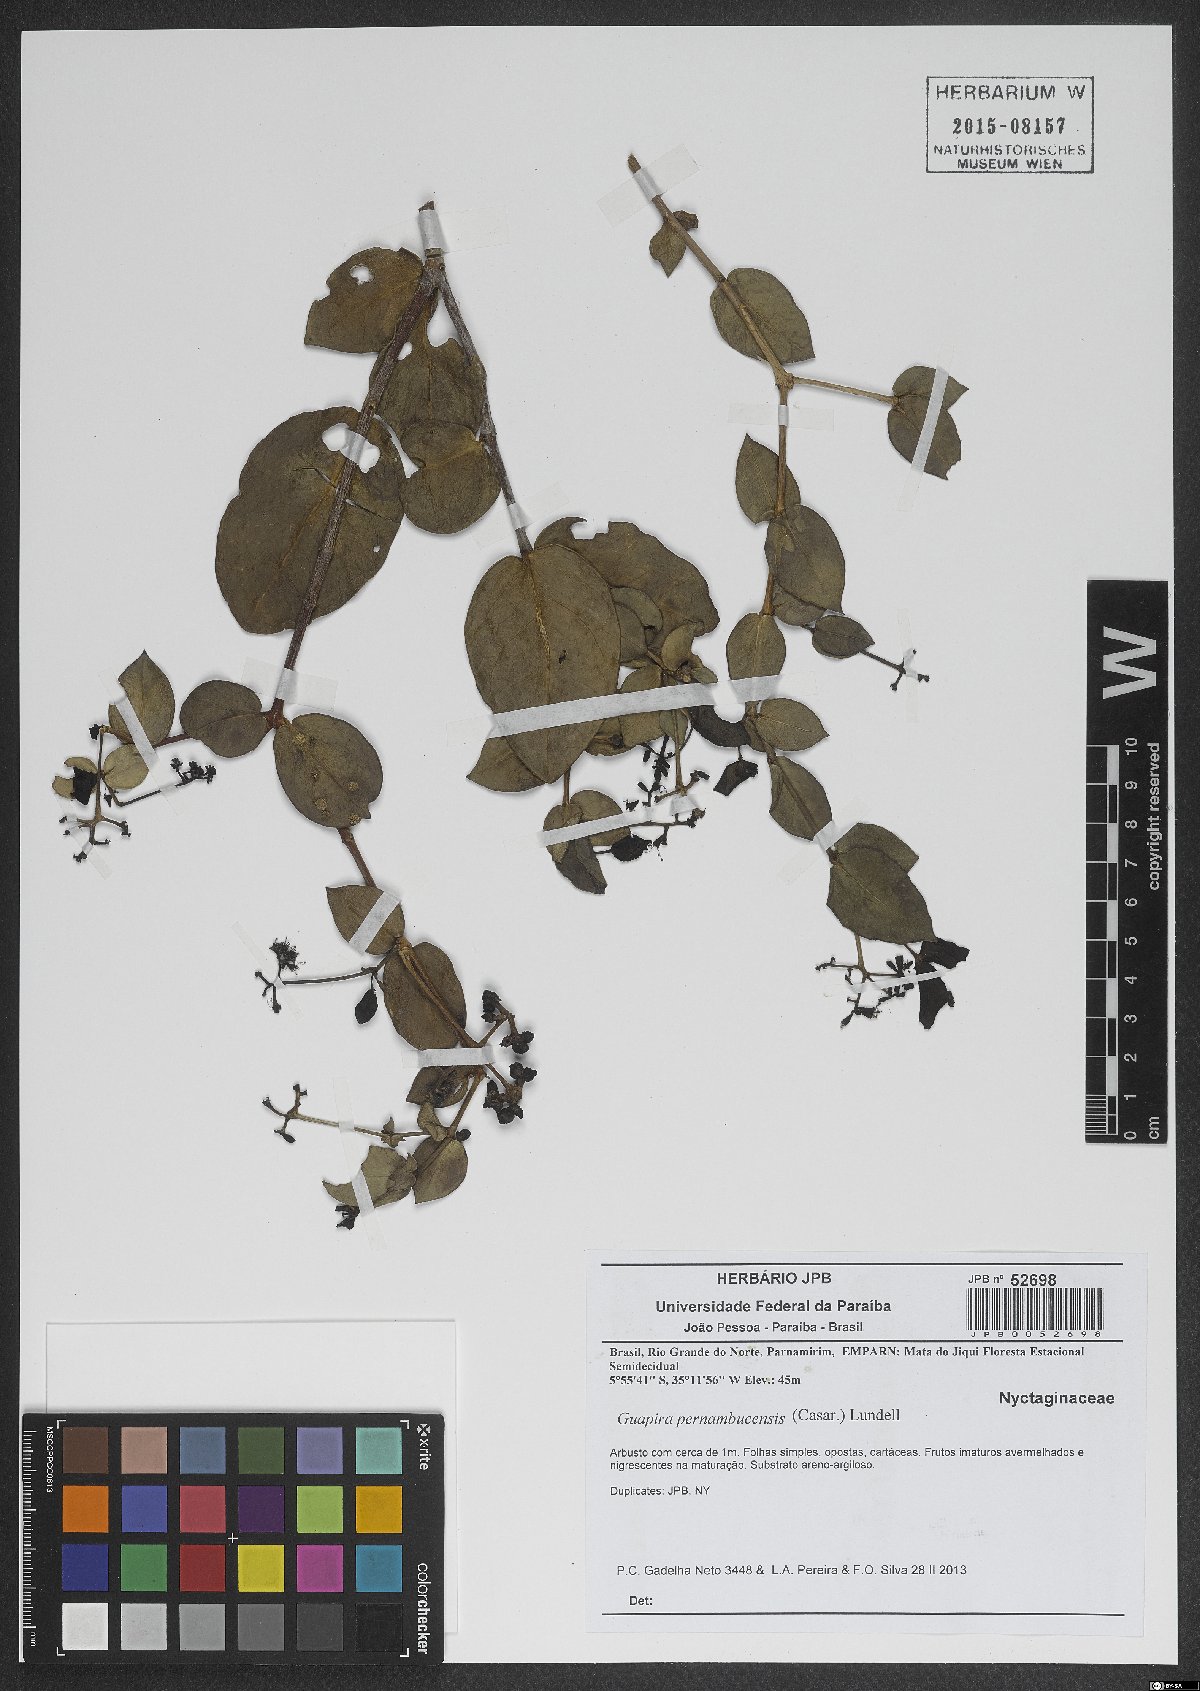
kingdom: Plantae
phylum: Tracheophyta
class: Magnoliopsida
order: Caryophyllales
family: Nyctaginaceae
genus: Guapira
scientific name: Guapira pernambucensis
